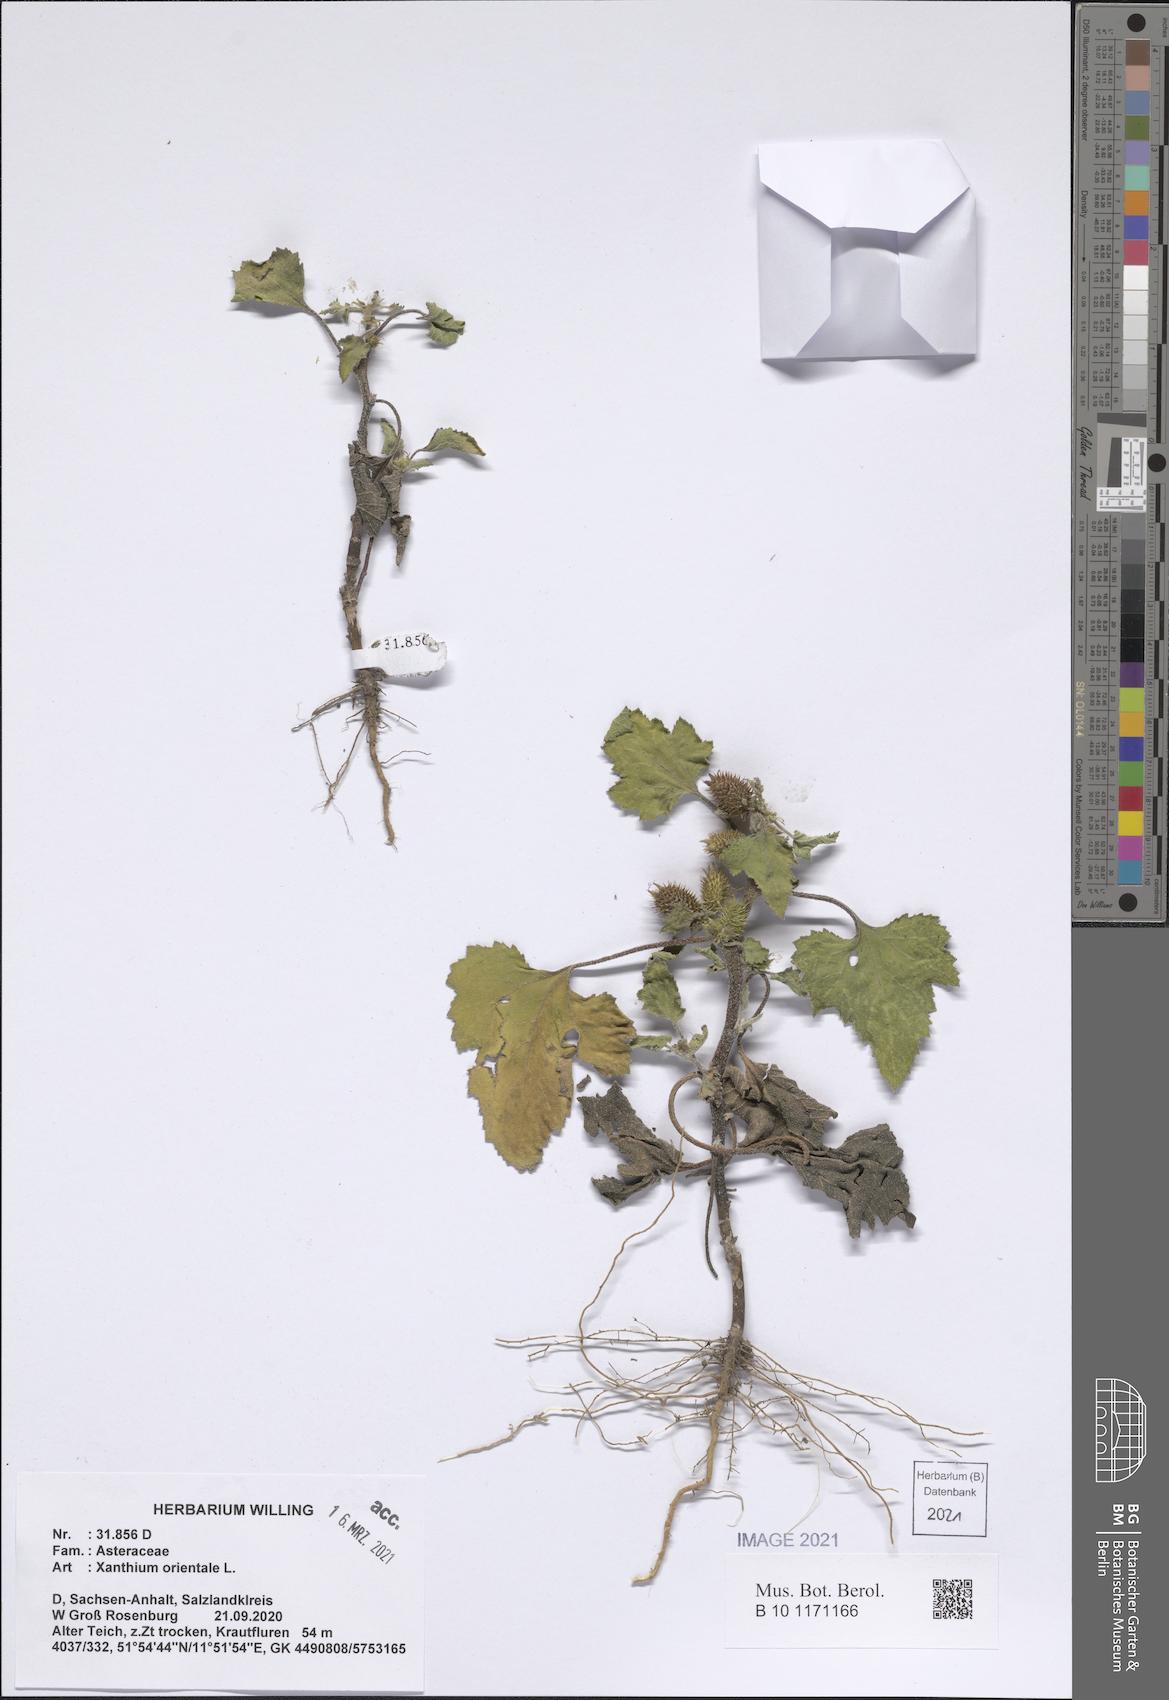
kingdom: Plantae
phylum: Tracheophyta
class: Magnoliopsida
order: Asterales
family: Asteraceae
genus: Xanthium
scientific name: Xanthium orientale
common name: Californian burr
